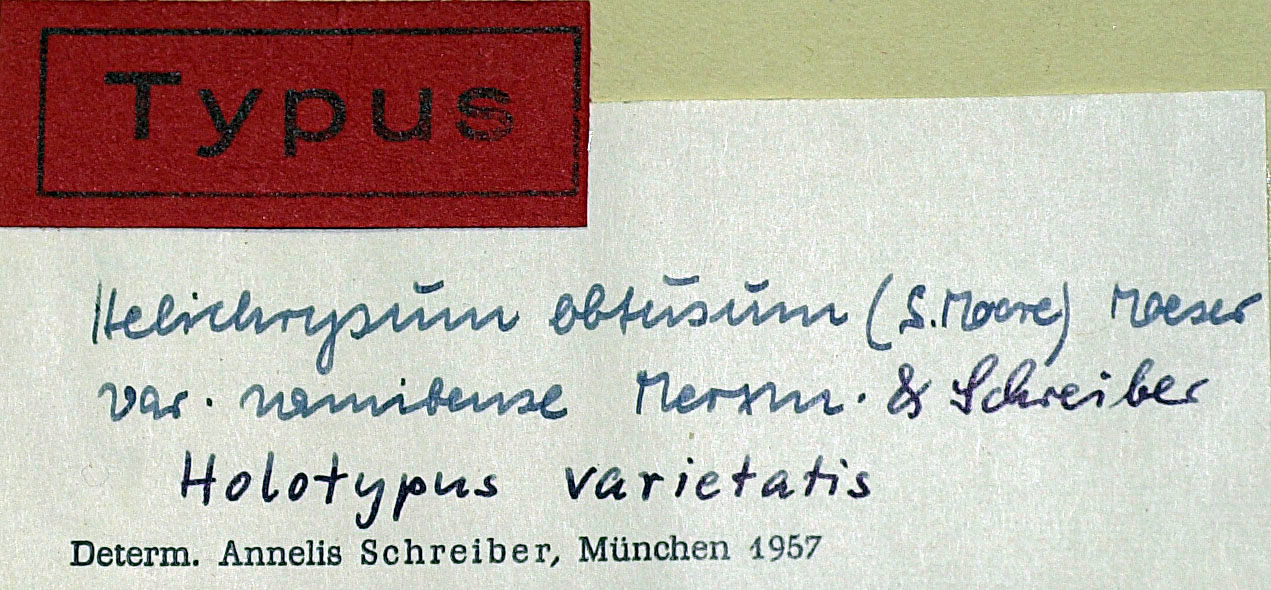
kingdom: Plantae
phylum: Tracheophyta
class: Magnoliopsida
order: Asterales
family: Asteraceae
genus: Helichrysum
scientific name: Helichrysum obtusum
